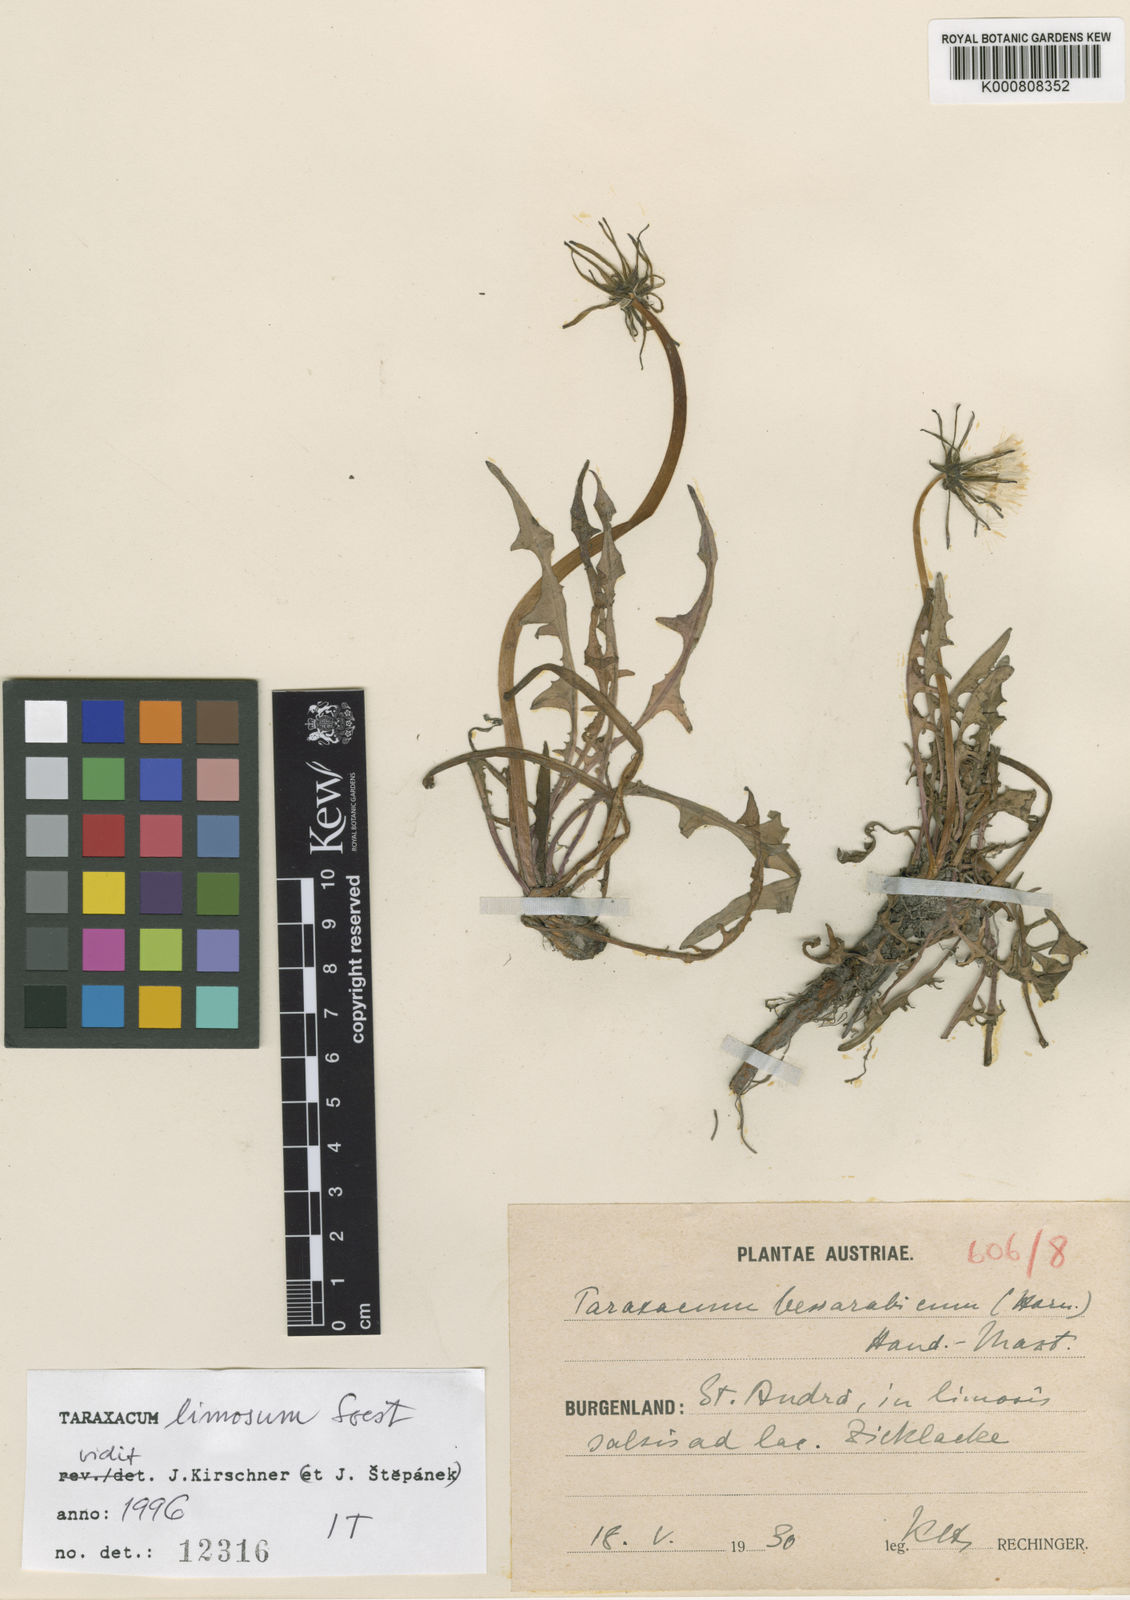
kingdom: Plantae
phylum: Tracheophyta
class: Magnoliopsida
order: Asterales
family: Asteraceae
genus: Taraxacum
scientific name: Taraxacum limnanthes
